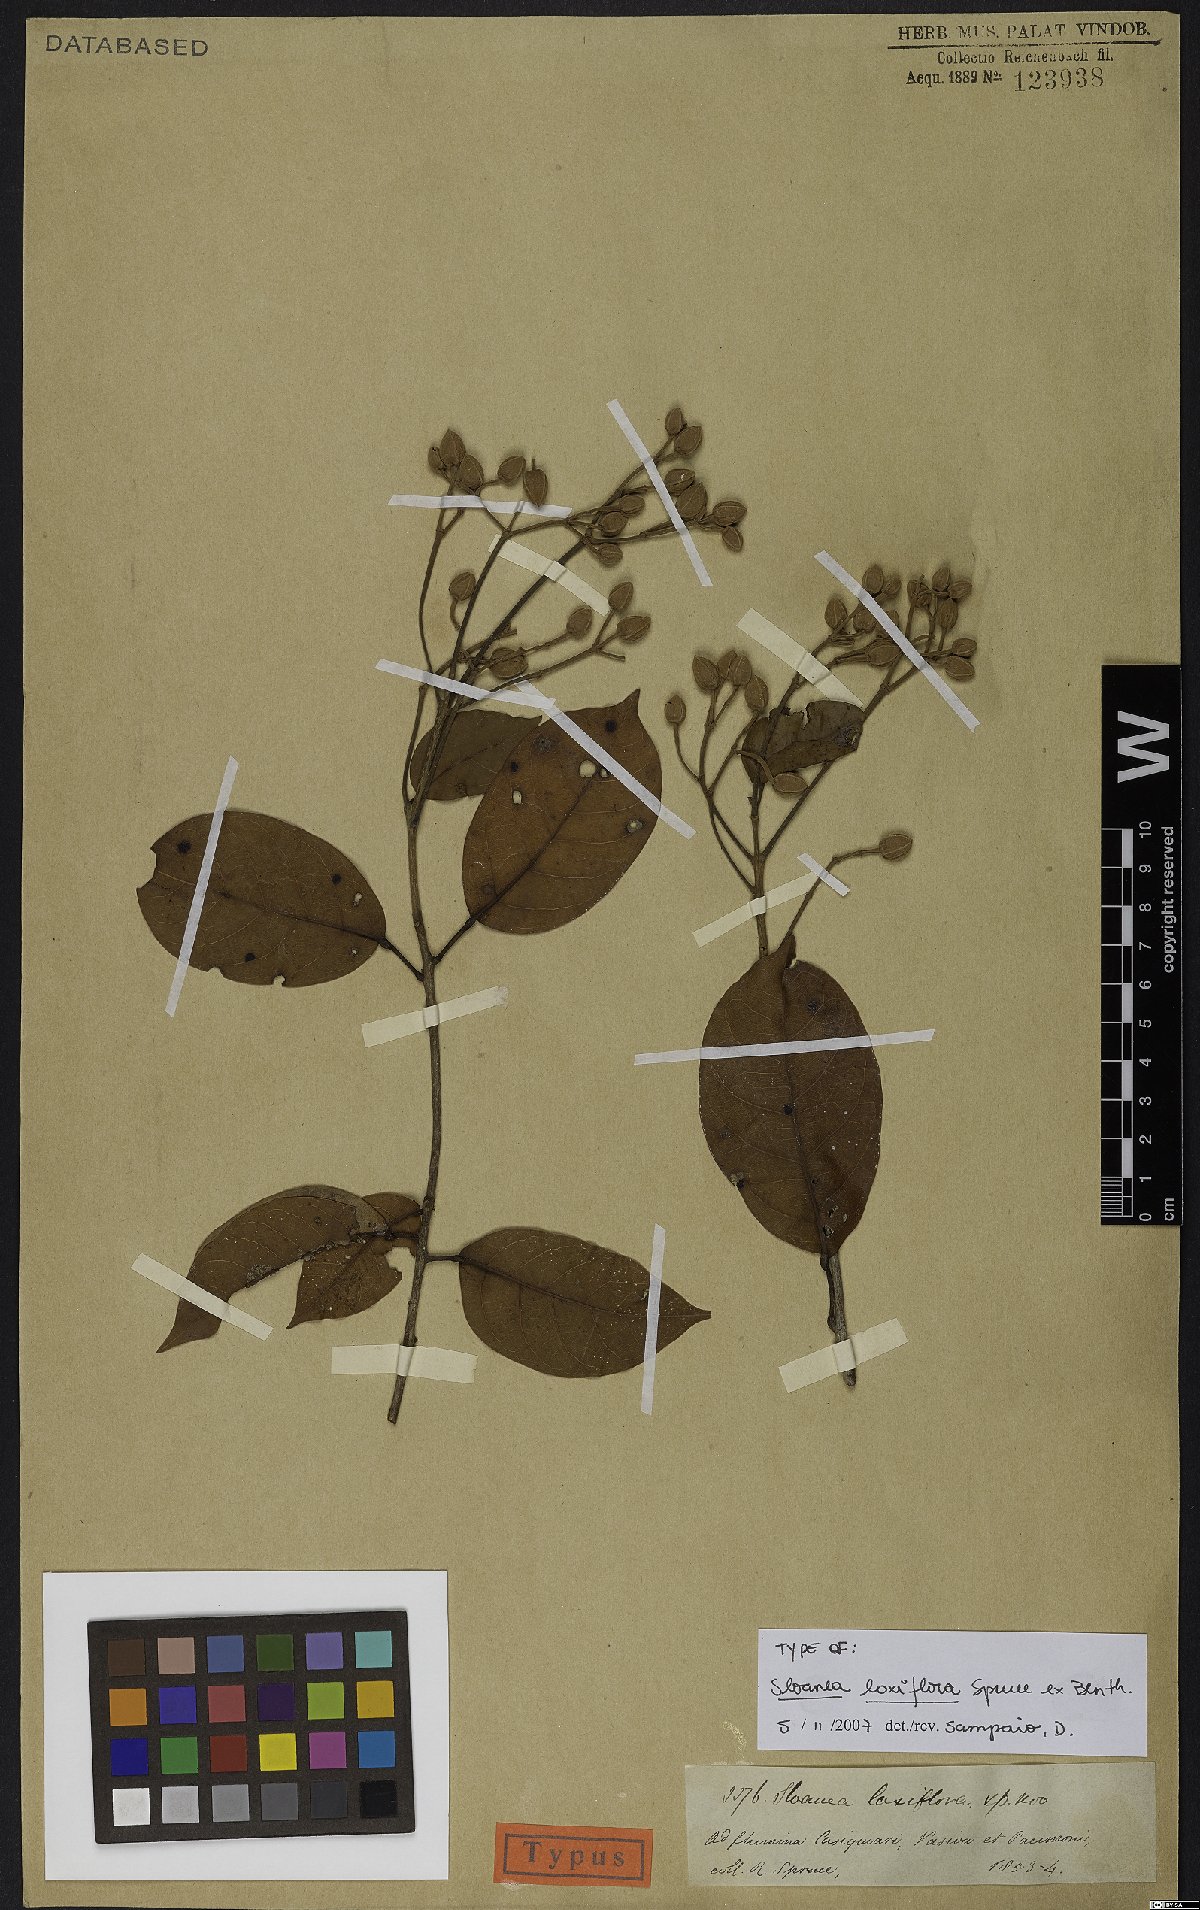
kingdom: Plantae
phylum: Tracheophyta
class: Magnoliopsida
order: Oxalidales
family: Elaeocarpaceae
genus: Sloanea
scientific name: Sloanea laxiflora
